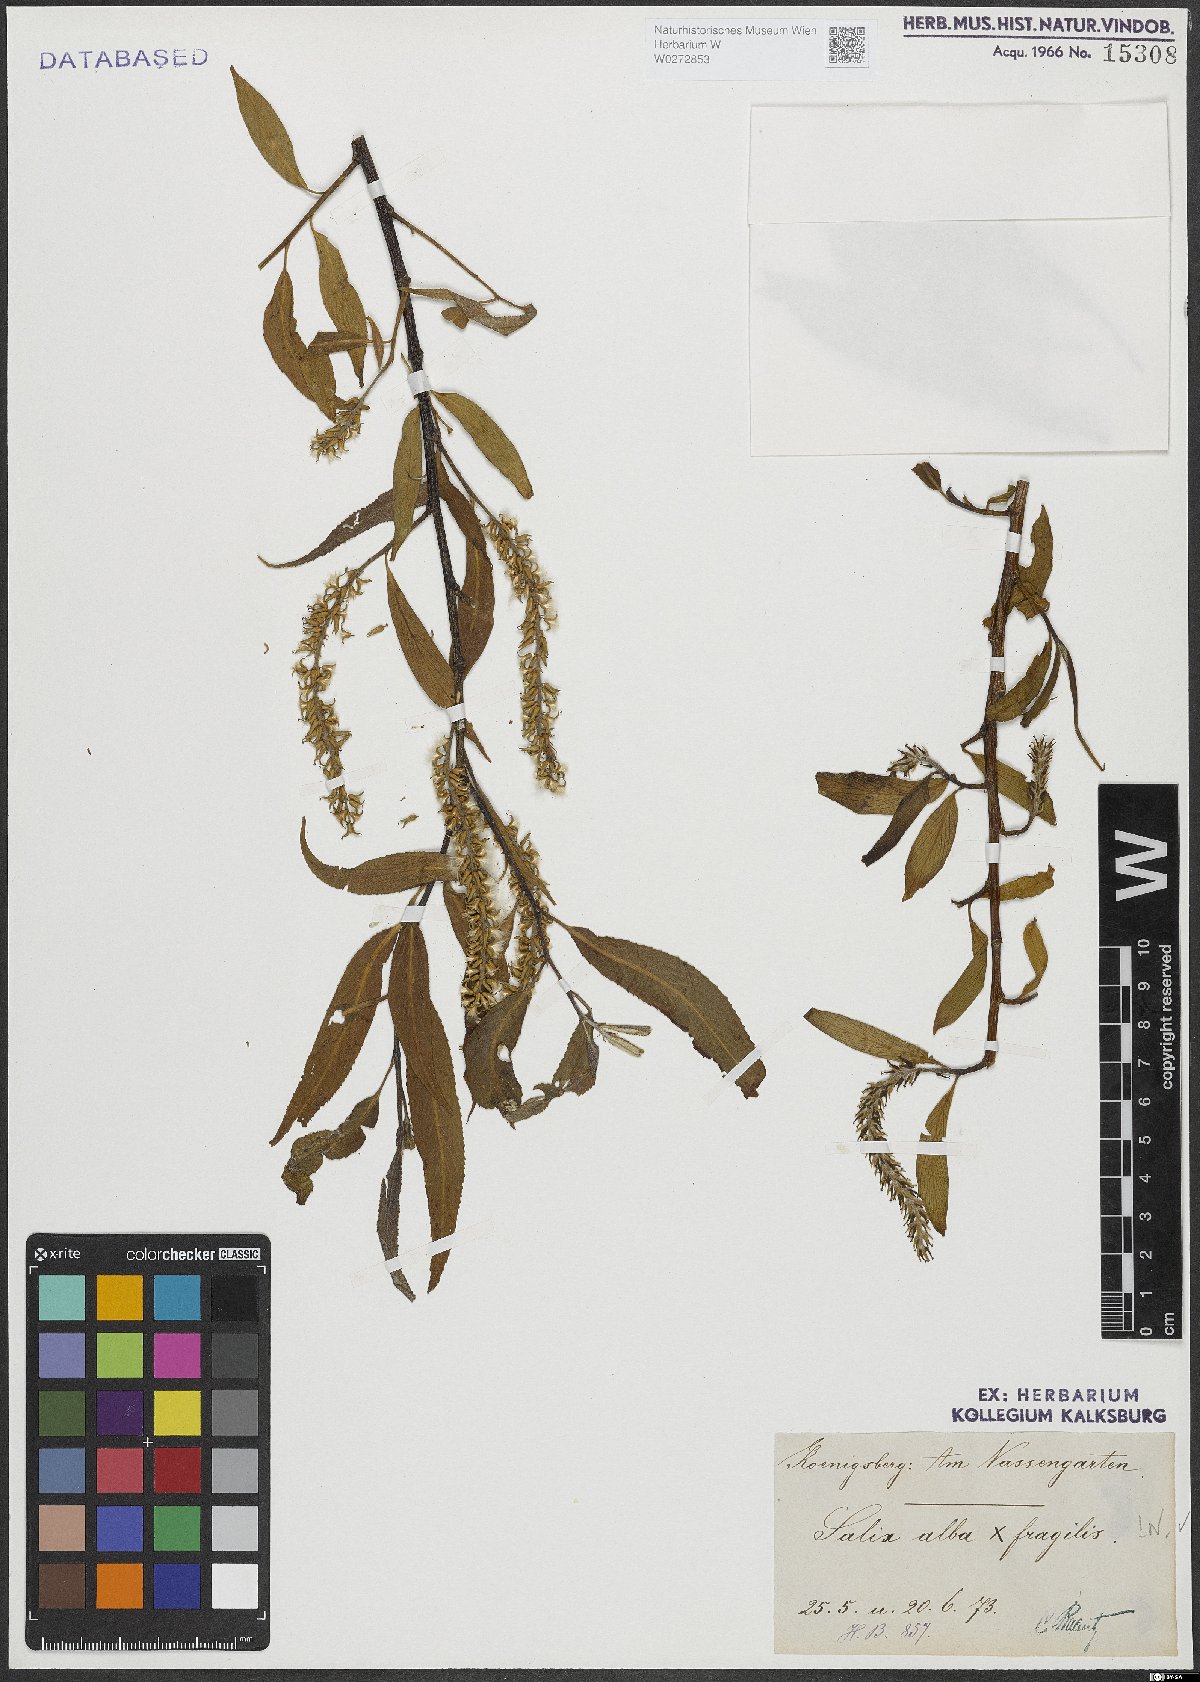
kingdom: Plantae
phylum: Tracheophyta
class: Magnoliopsida
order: Malpighiales
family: Salicaceae
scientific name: Salicaceae
